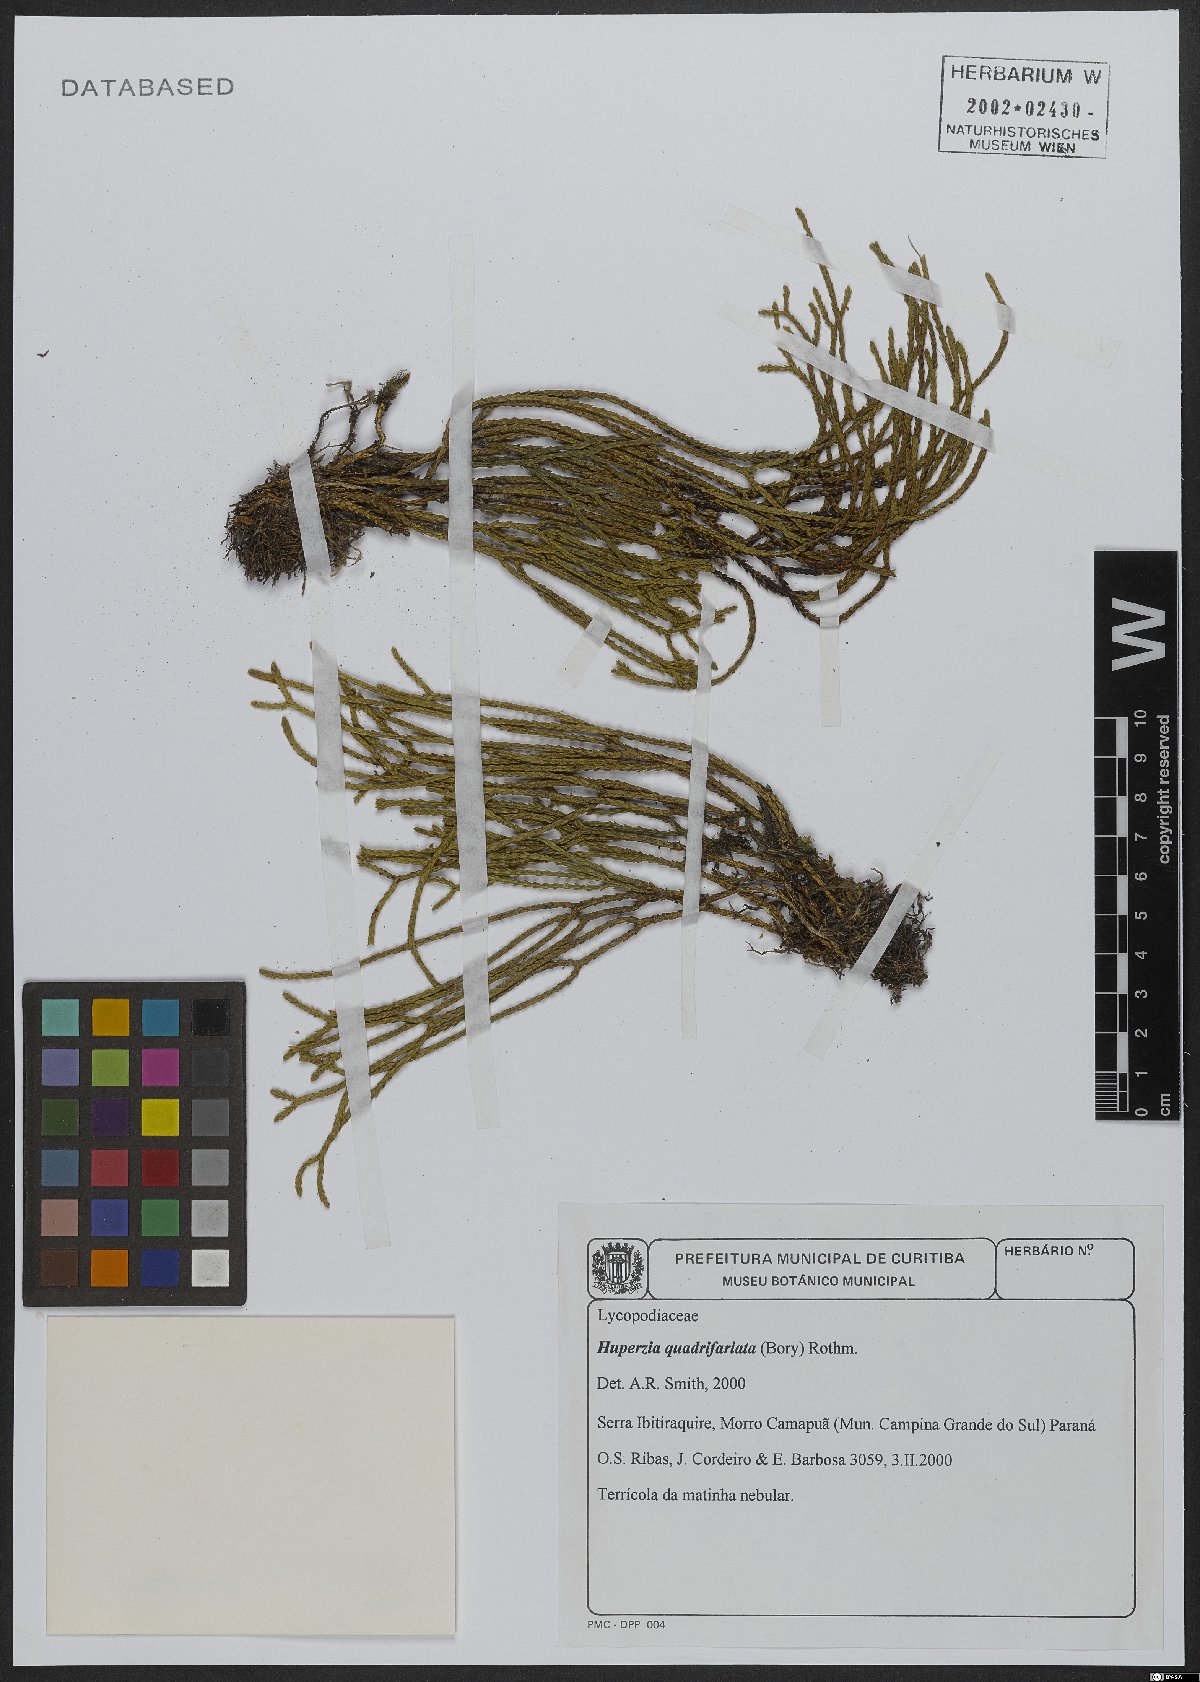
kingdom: Plantae
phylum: Tracheophyta
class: Lycopodiopsida
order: Lycopodiales
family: Lycopodiaceae
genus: Phlegmariurus
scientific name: Phlegmariurus quadrifariatus
